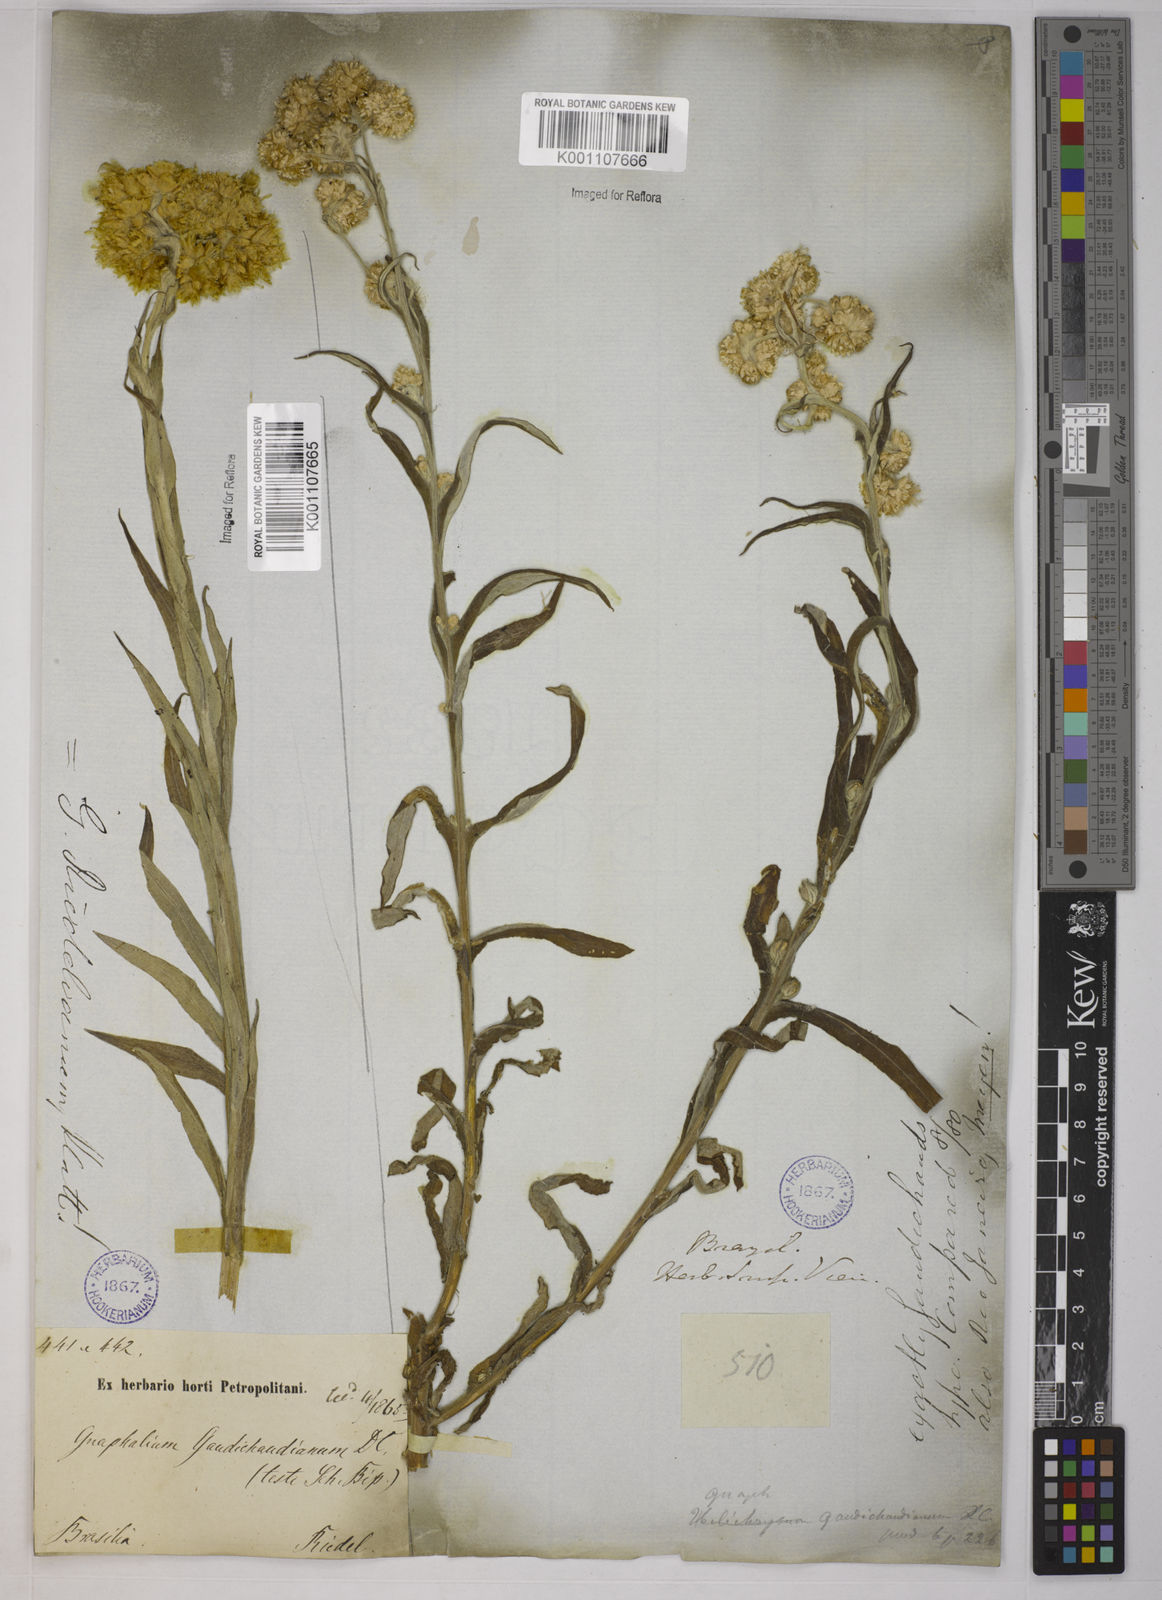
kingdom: Plantae
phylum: Tracheophyta
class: Magnoliopsida
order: Asterales
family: Asteraceae
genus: Pseudognaphalium
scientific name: Pseudognaphalium cheiranthifolium
